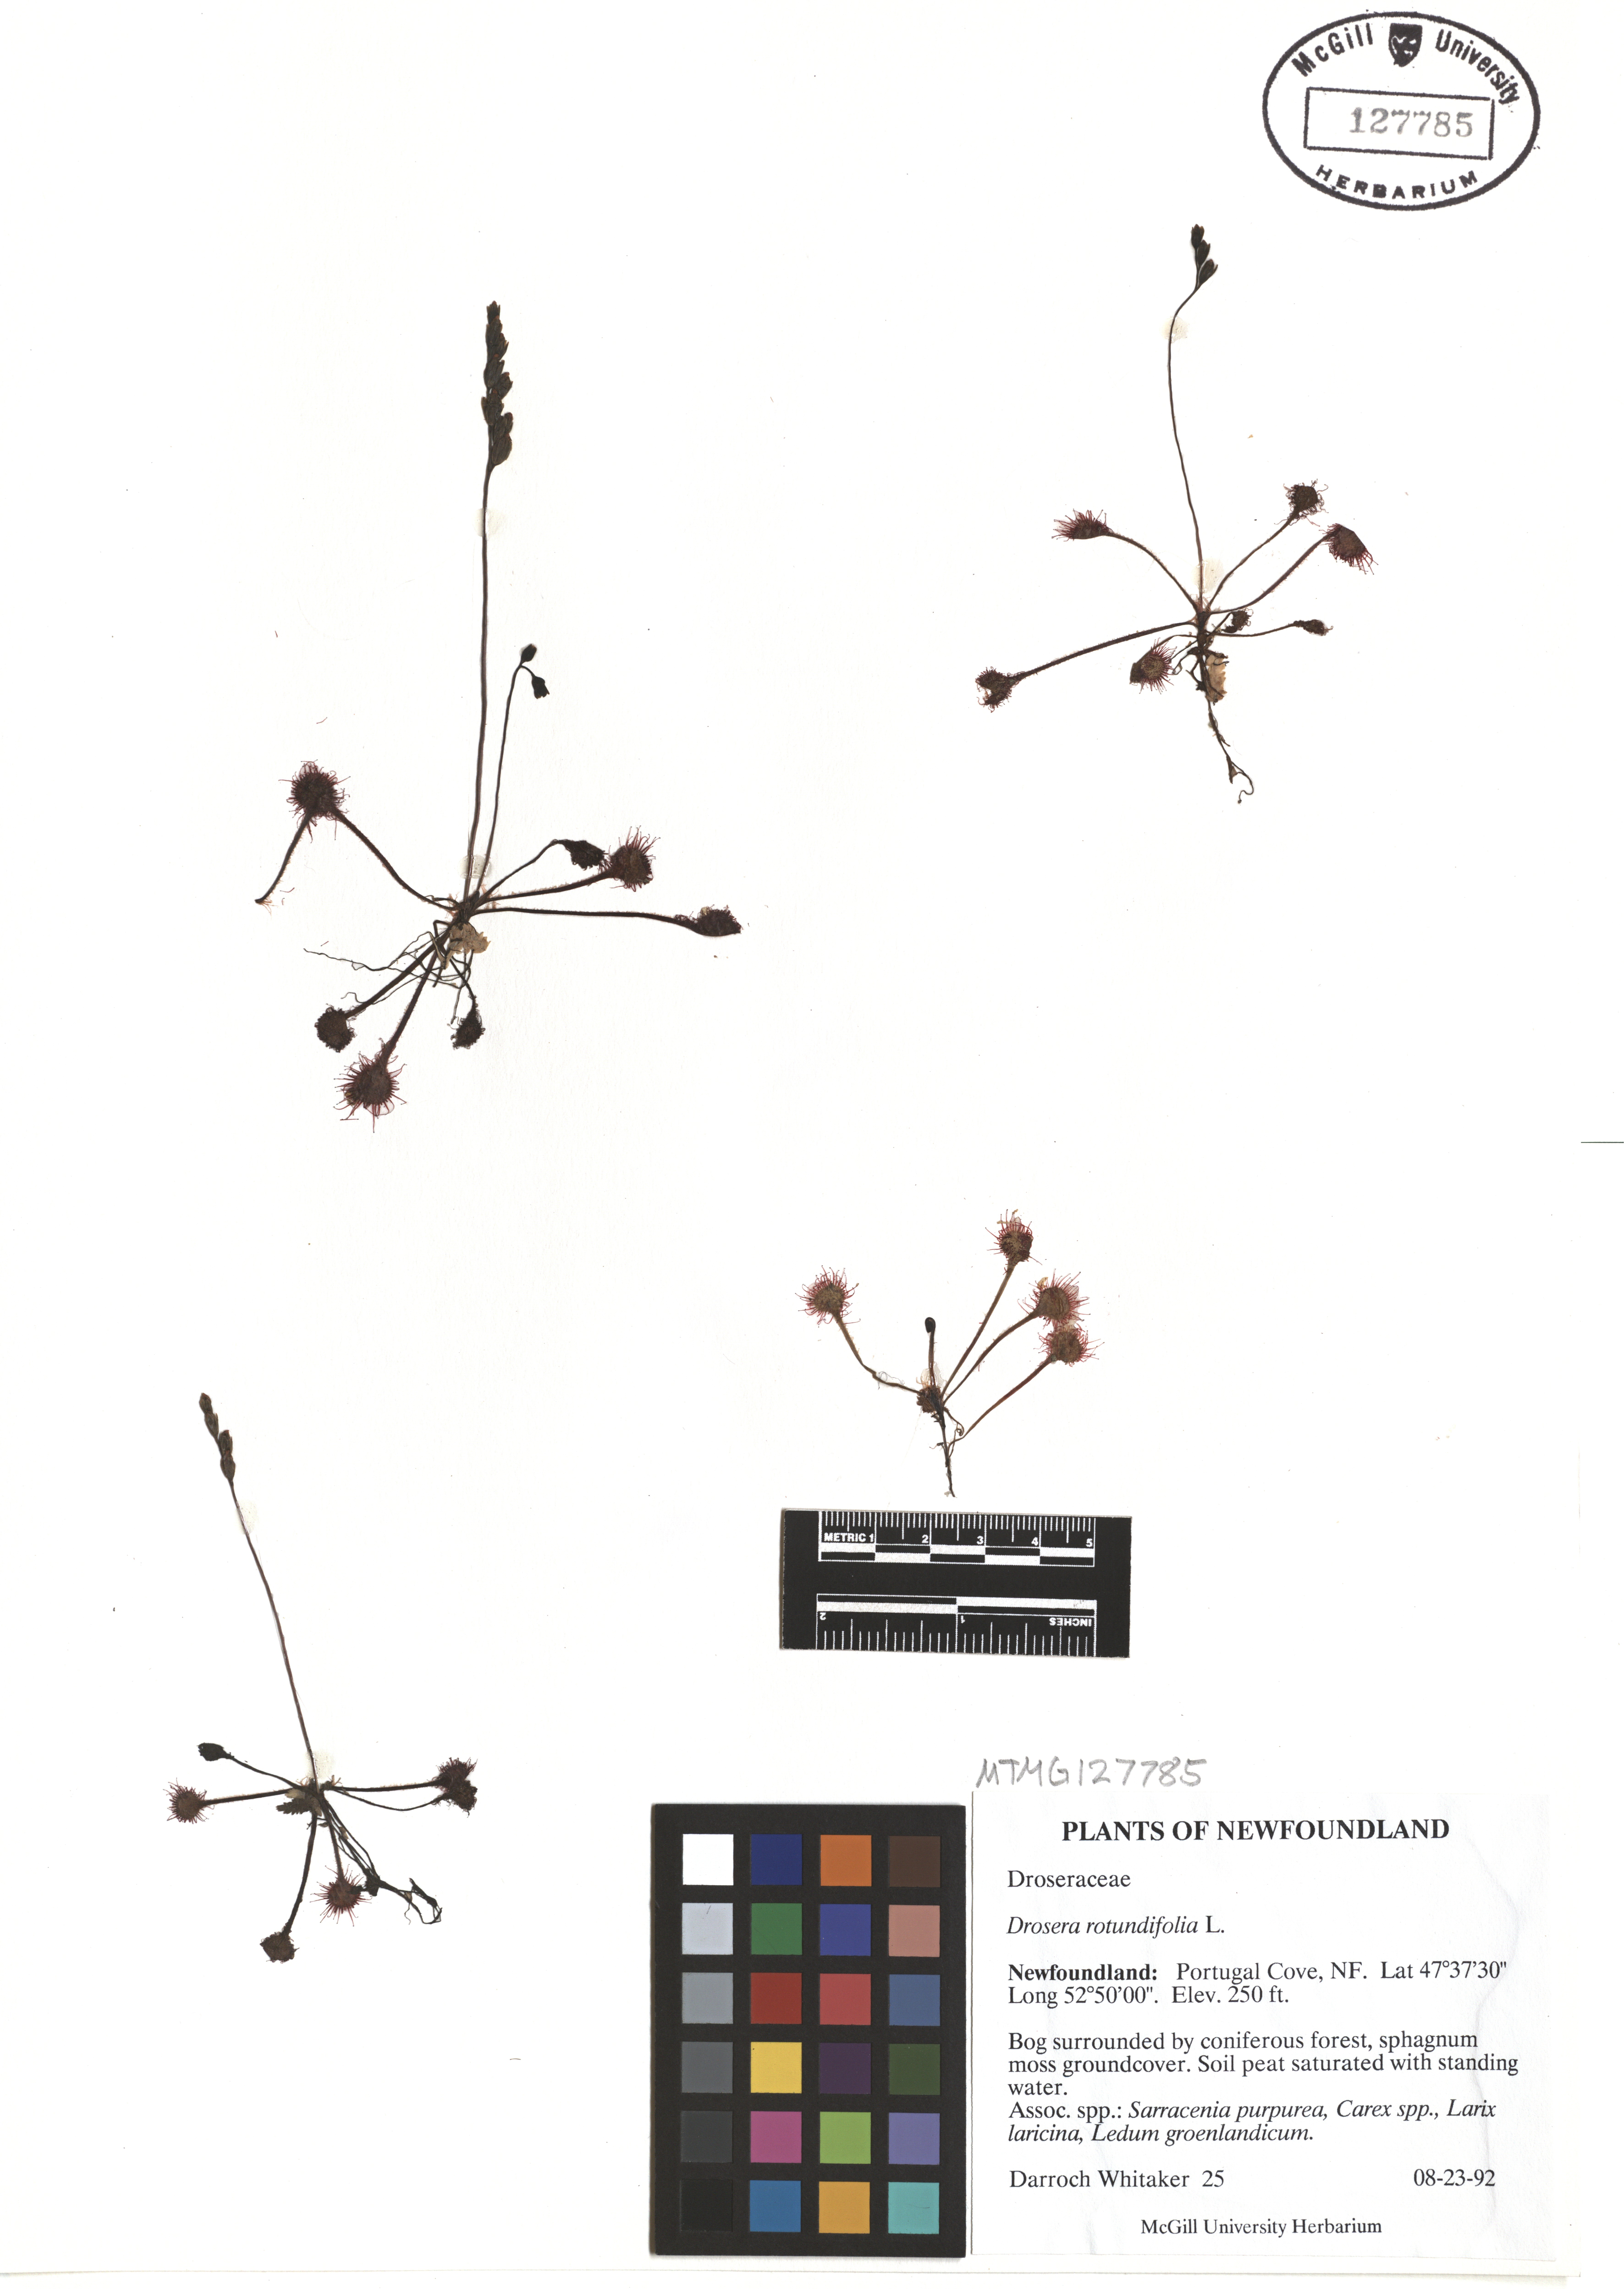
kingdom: Plantae
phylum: Tracheophyta
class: Magnoliopsida
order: Caryophyllales
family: Droseraceae
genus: Drosera
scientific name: Drosera rotundifolia
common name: Round-leaved sundew
